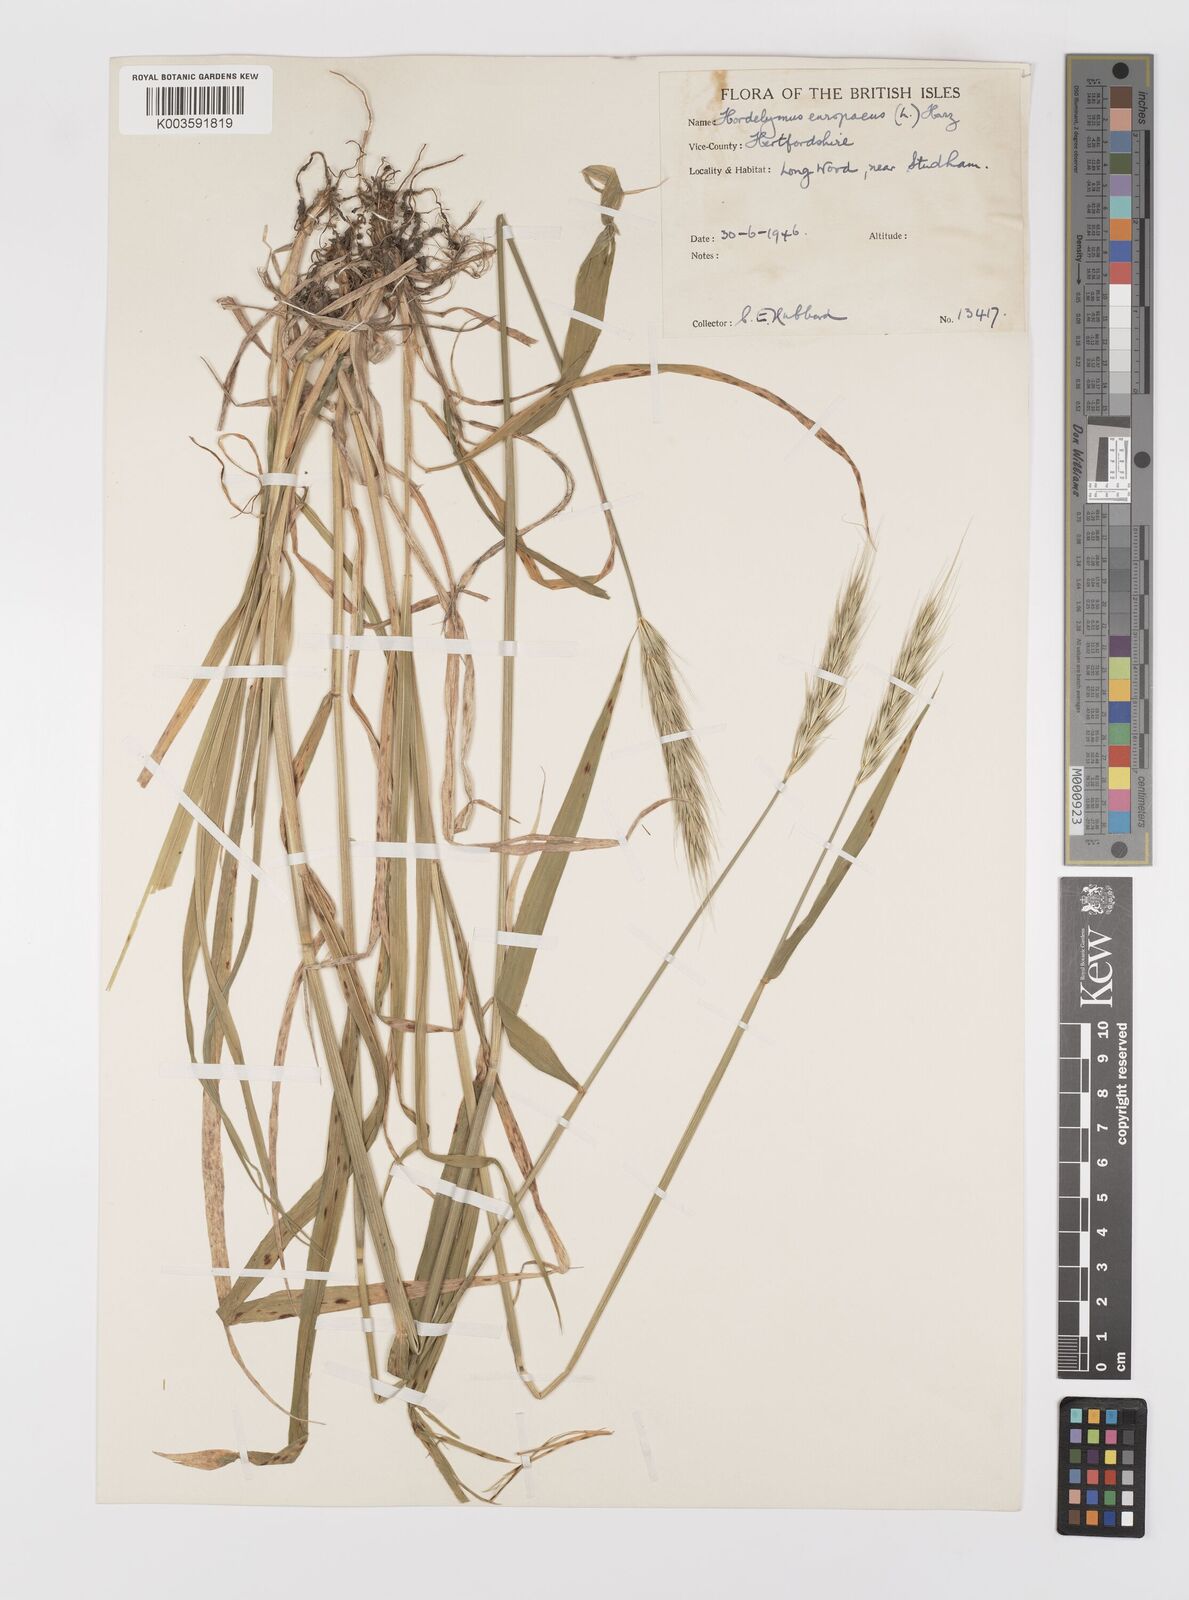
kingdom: Plantae
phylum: Tracheophyta
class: Liliopsida
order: Poales
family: Poaceae
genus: Hordelymus
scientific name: Hordelymus europaeus
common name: Wood-barley
